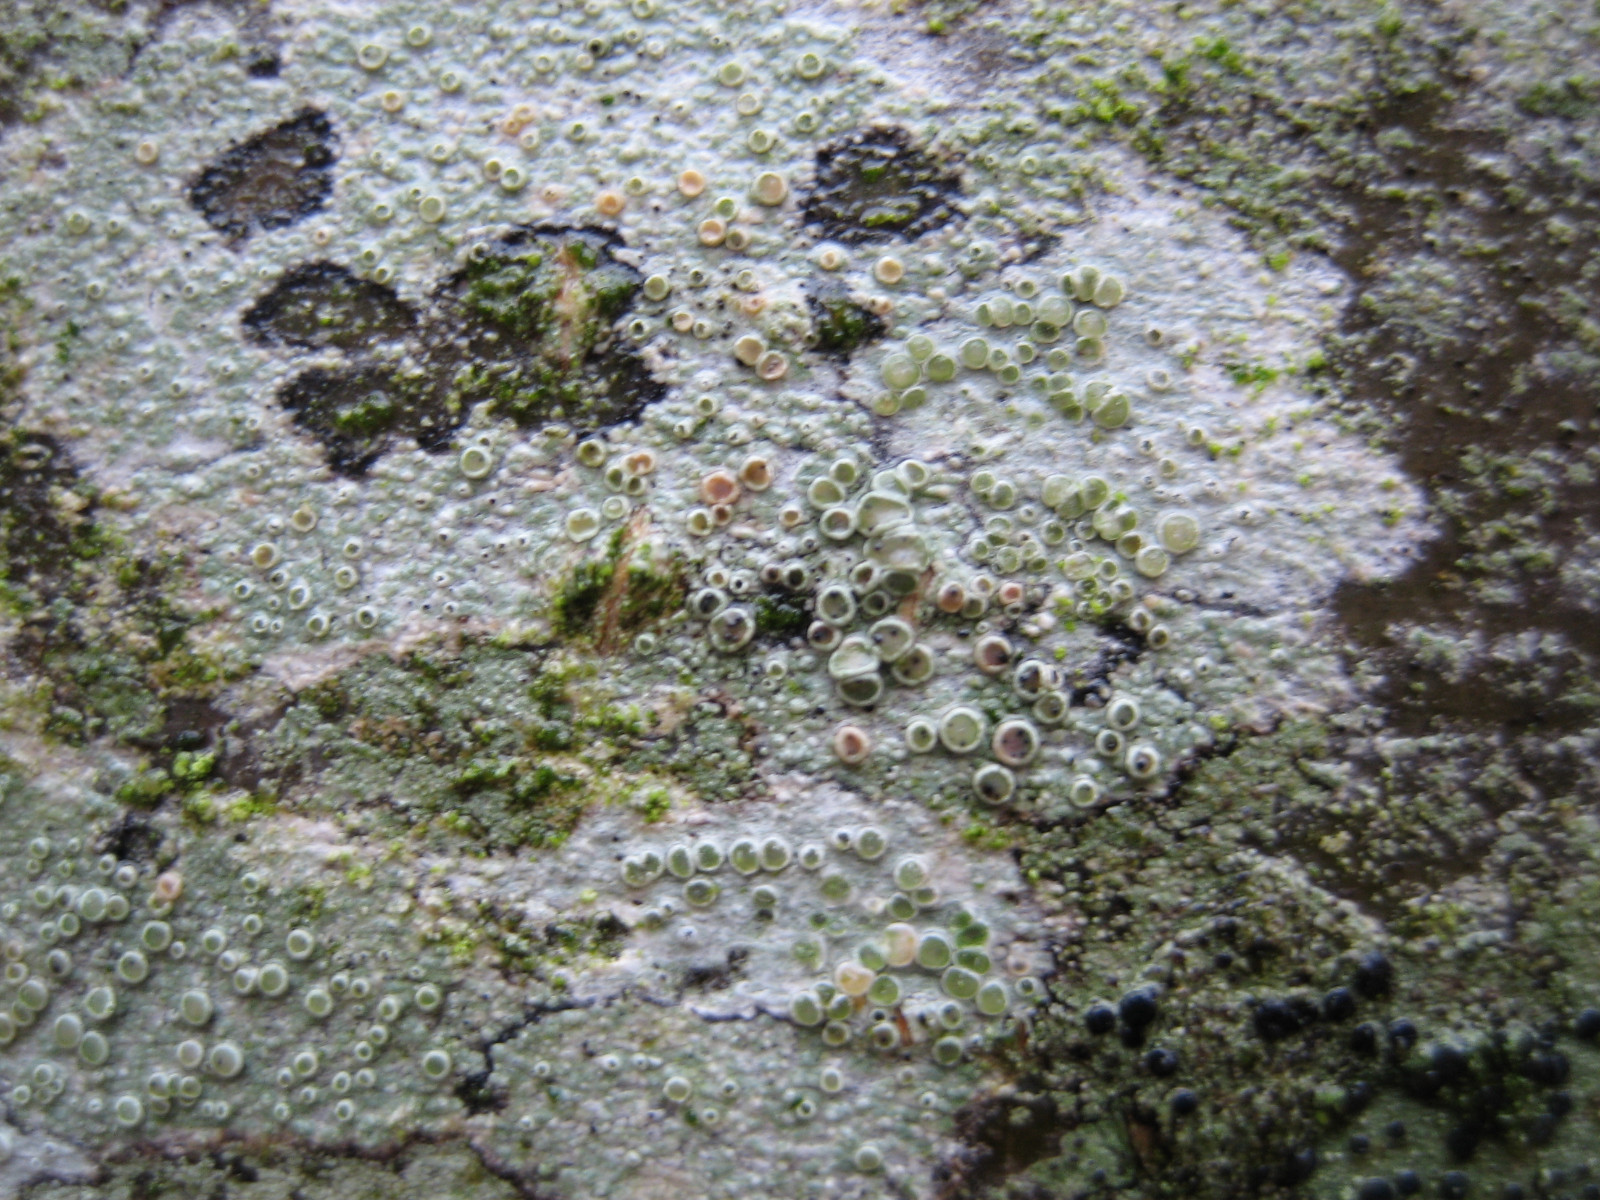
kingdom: Fungi
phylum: Ascomycota
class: Lecanoromycetes
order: Lecanorales
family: Lecanoraceae
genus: Lecanora
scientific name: Lecanora chlarotera
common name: brun kantskivelav
